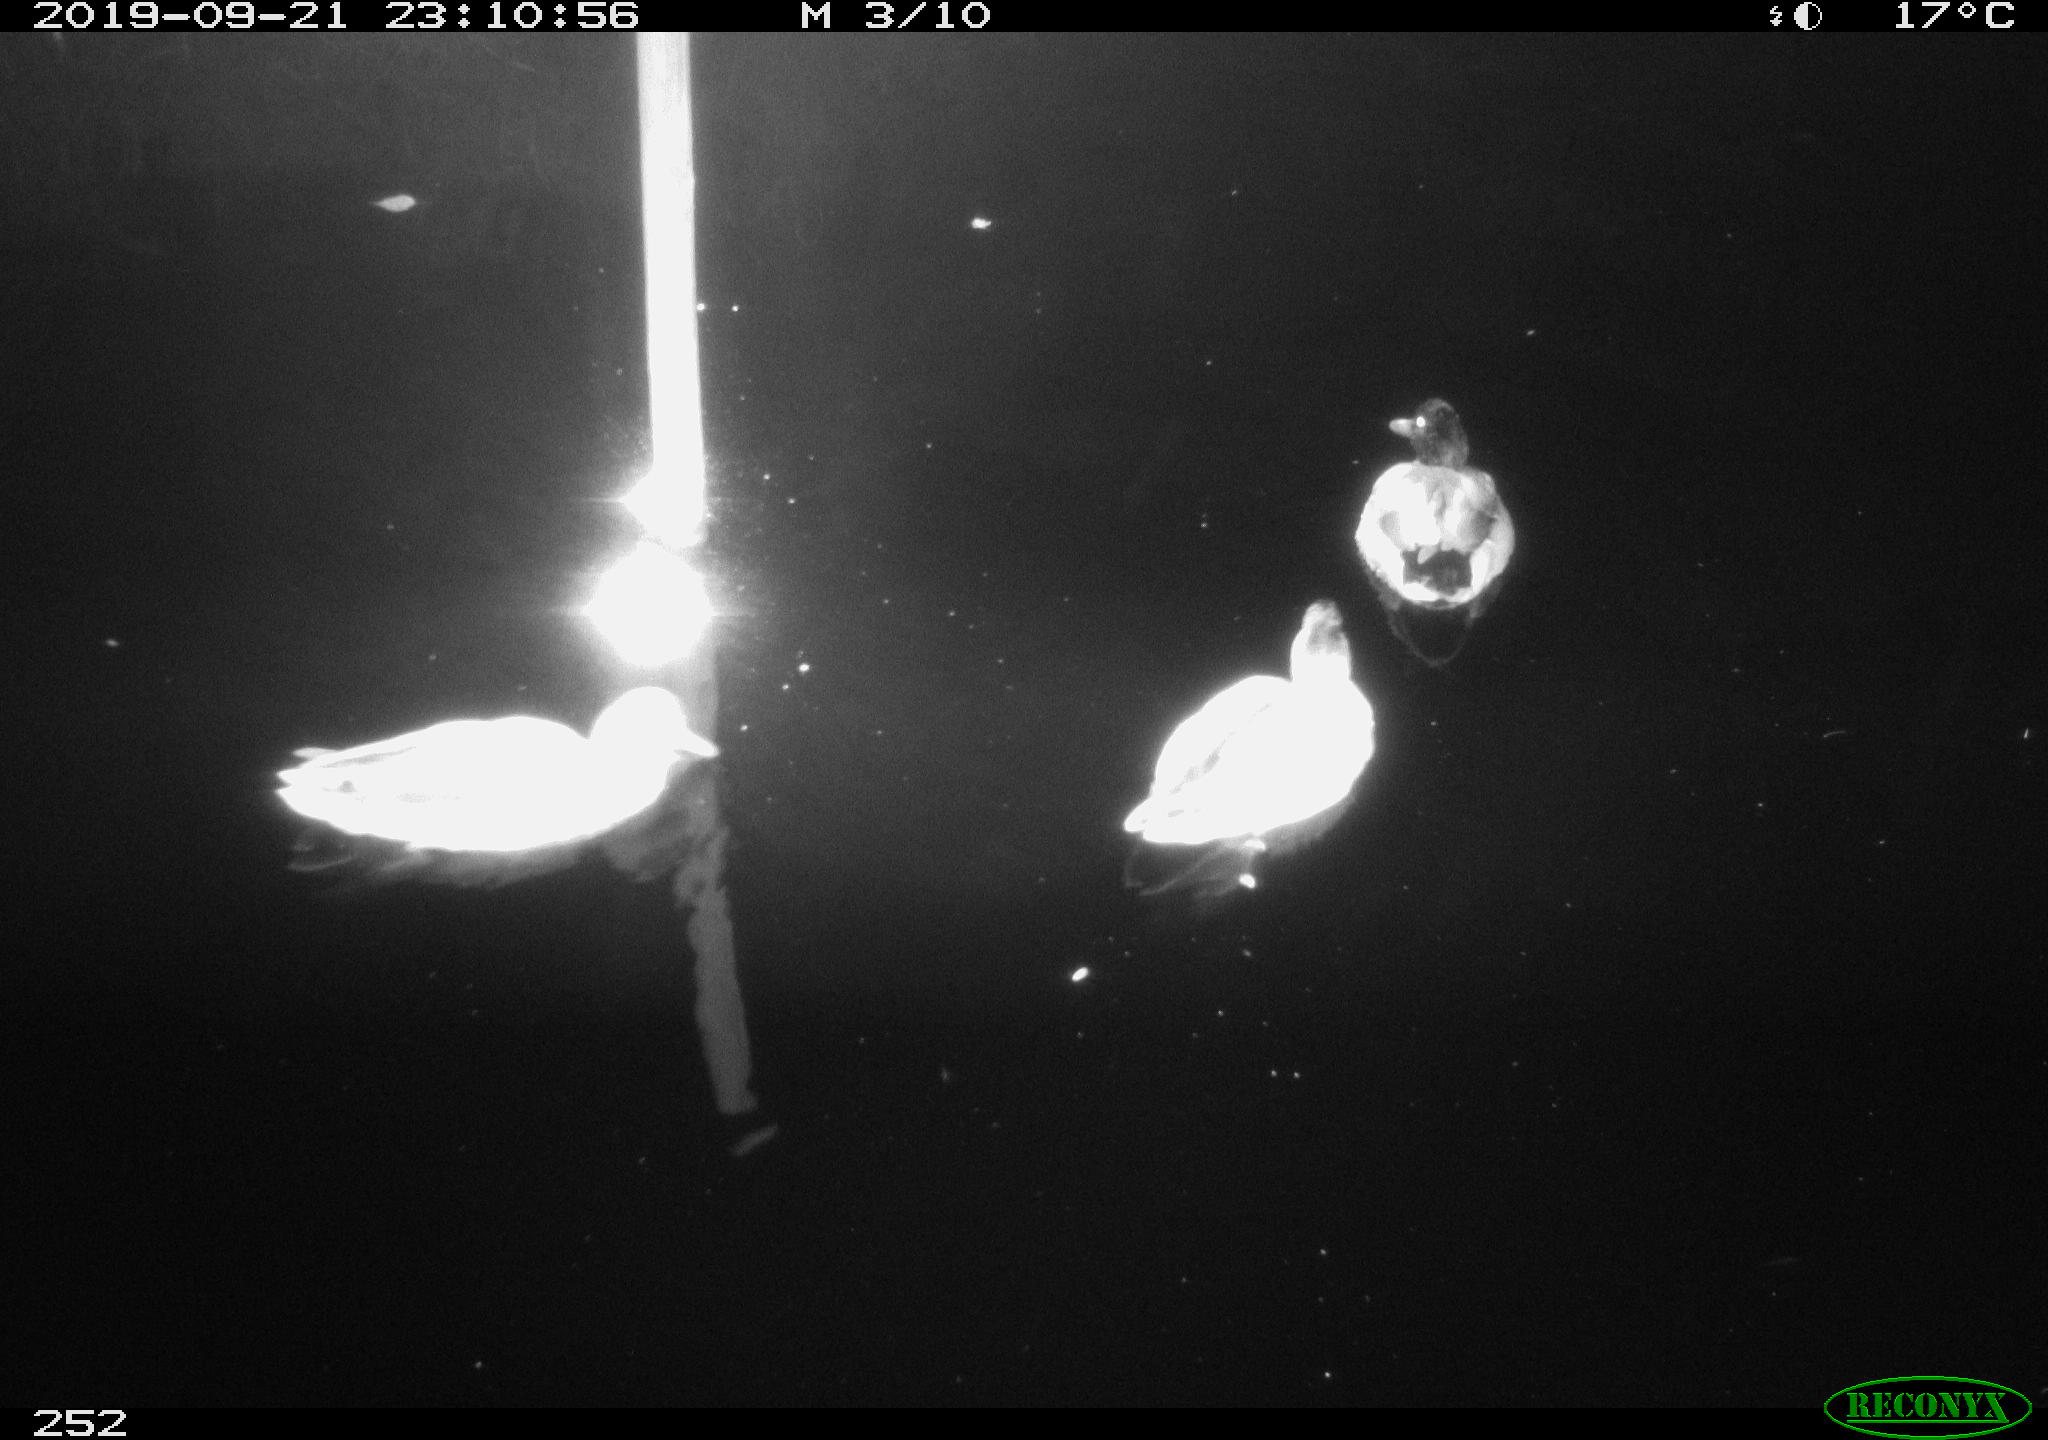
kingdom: Animalia
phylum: Chordata
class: Aves
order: Anseriformes
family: Anatidae
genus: Anas
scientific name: Anas platyrhynchos
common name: Mallard
